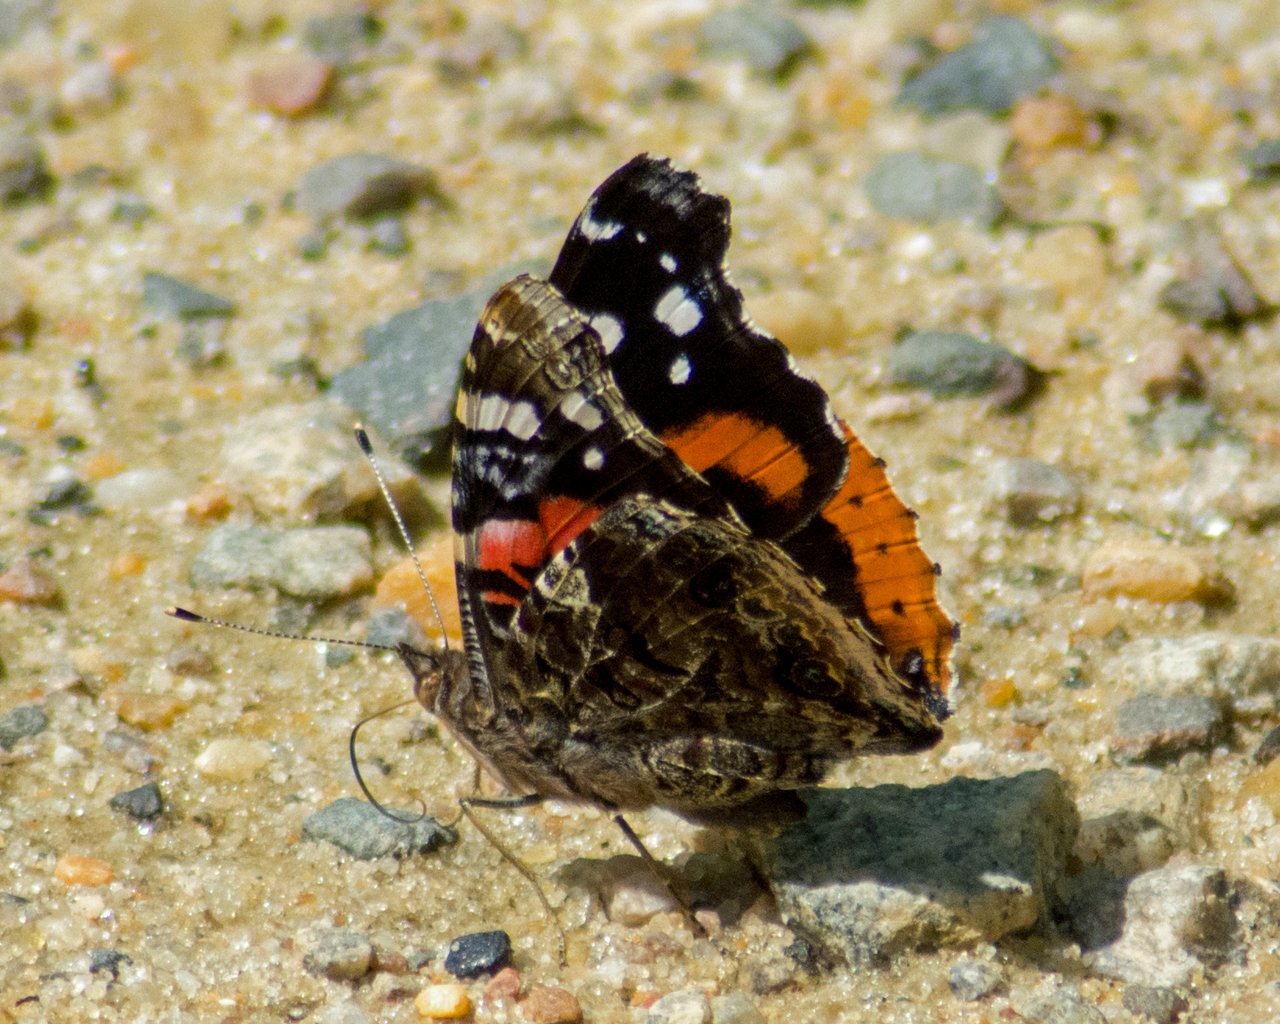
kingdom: Animalia
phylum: Arthropoda
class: Insecta
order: Lepidoptera
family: Nymphalidae
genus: Vanessa
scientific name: Vanessa atalanta
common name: Red Admiral
